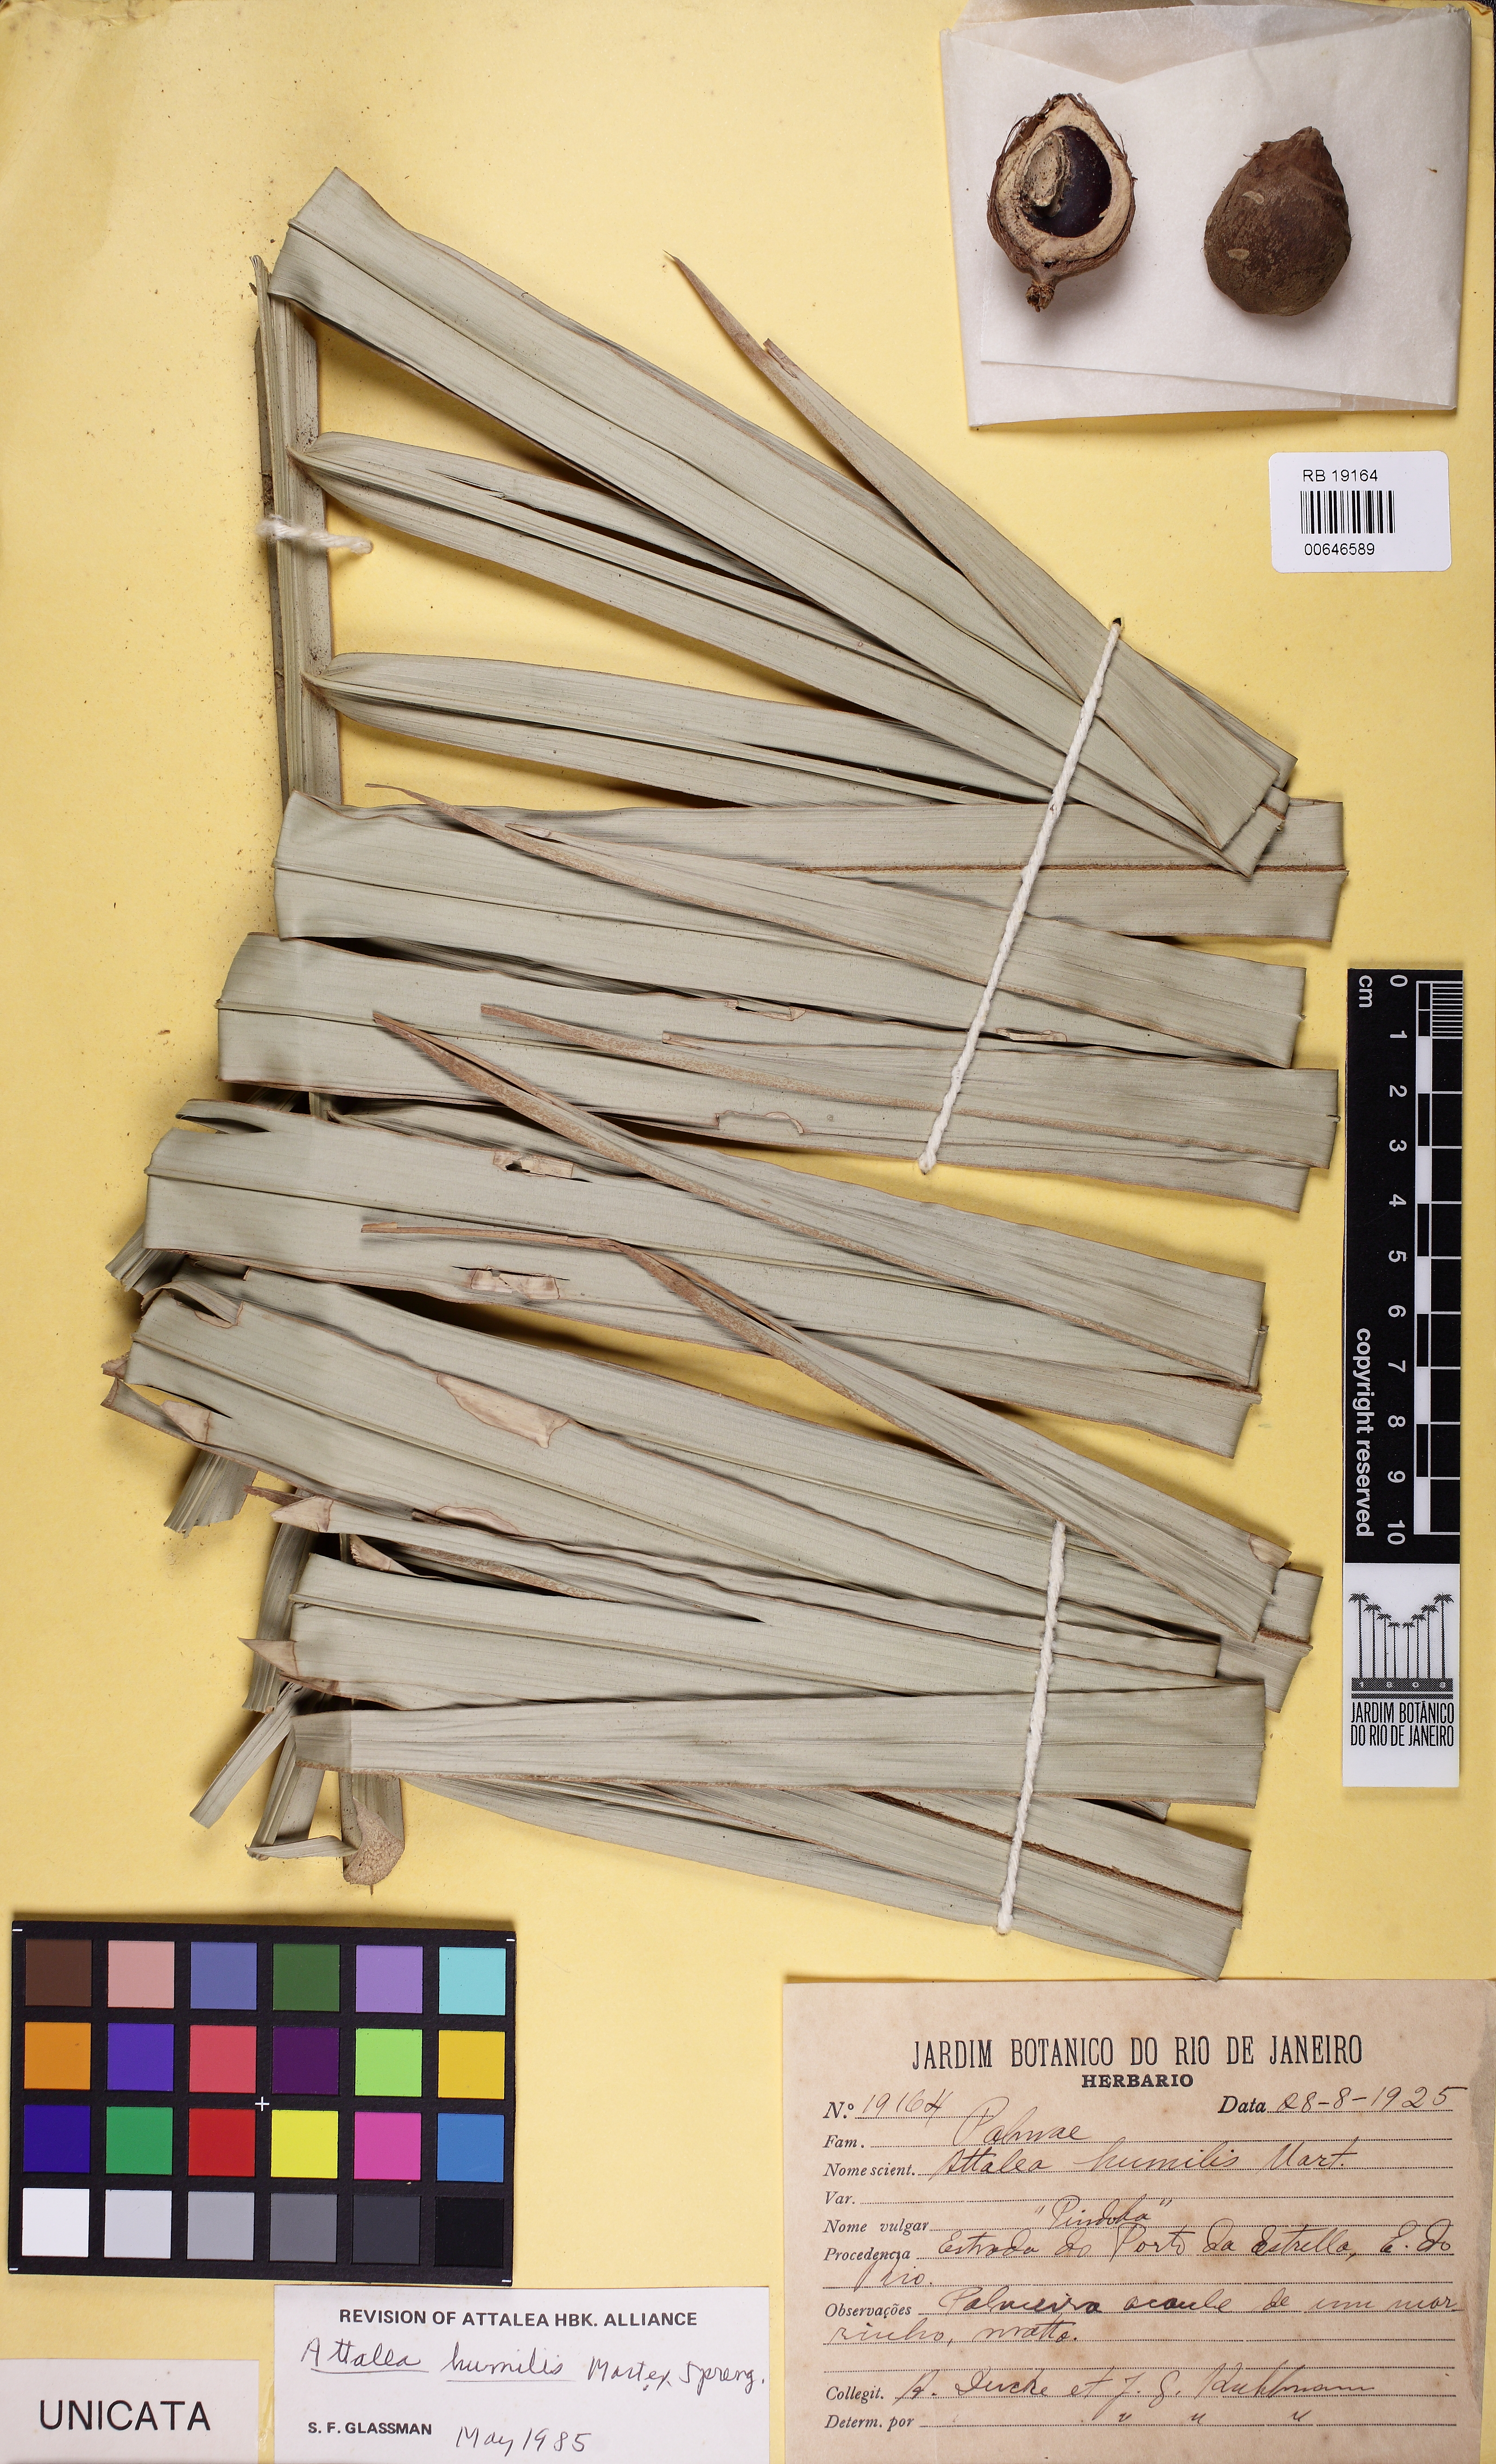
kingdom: Plantae
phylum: Tracheophyta
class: Liliopsida
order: Arecales
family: Arecaceae
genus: Attalea
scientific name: Attalea humilis
